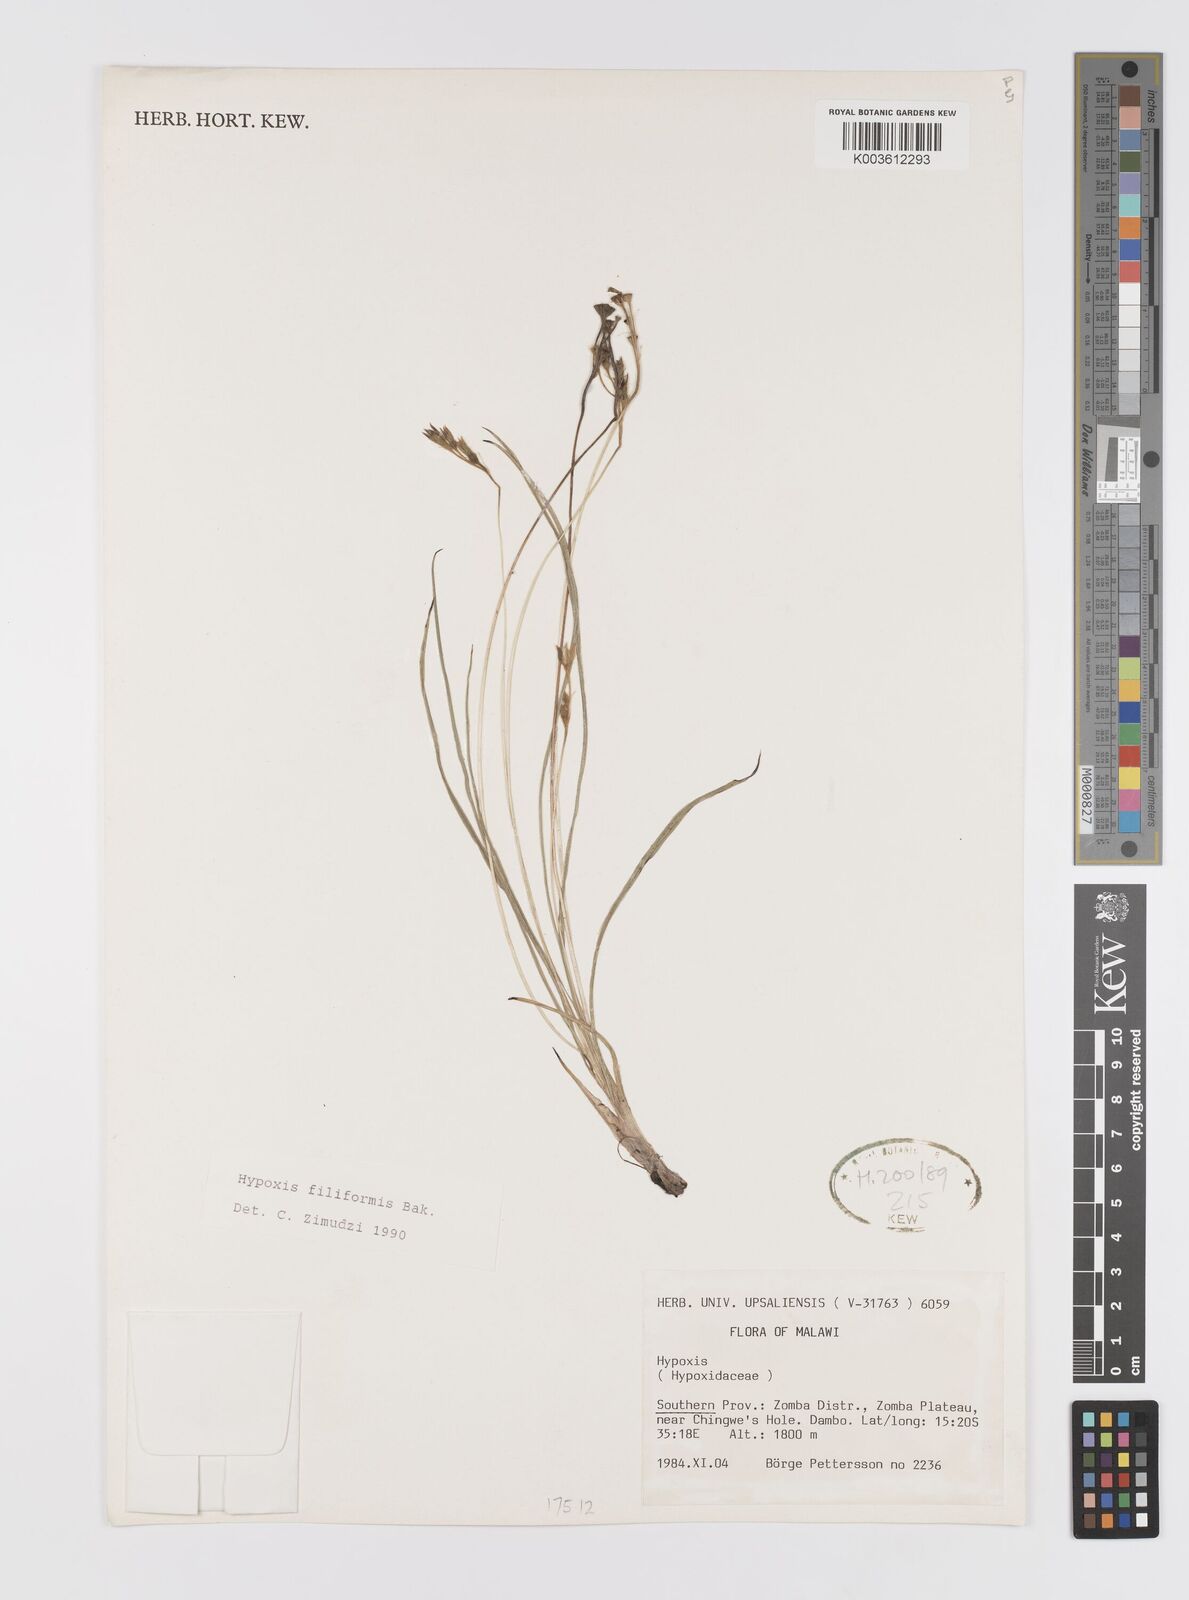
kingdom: Plantae
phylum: Tracheophyta
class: Liliopsida
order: Asparagales
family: Hypoxidaceae
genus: Hypoxis
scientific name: Hypoxis filiformis
